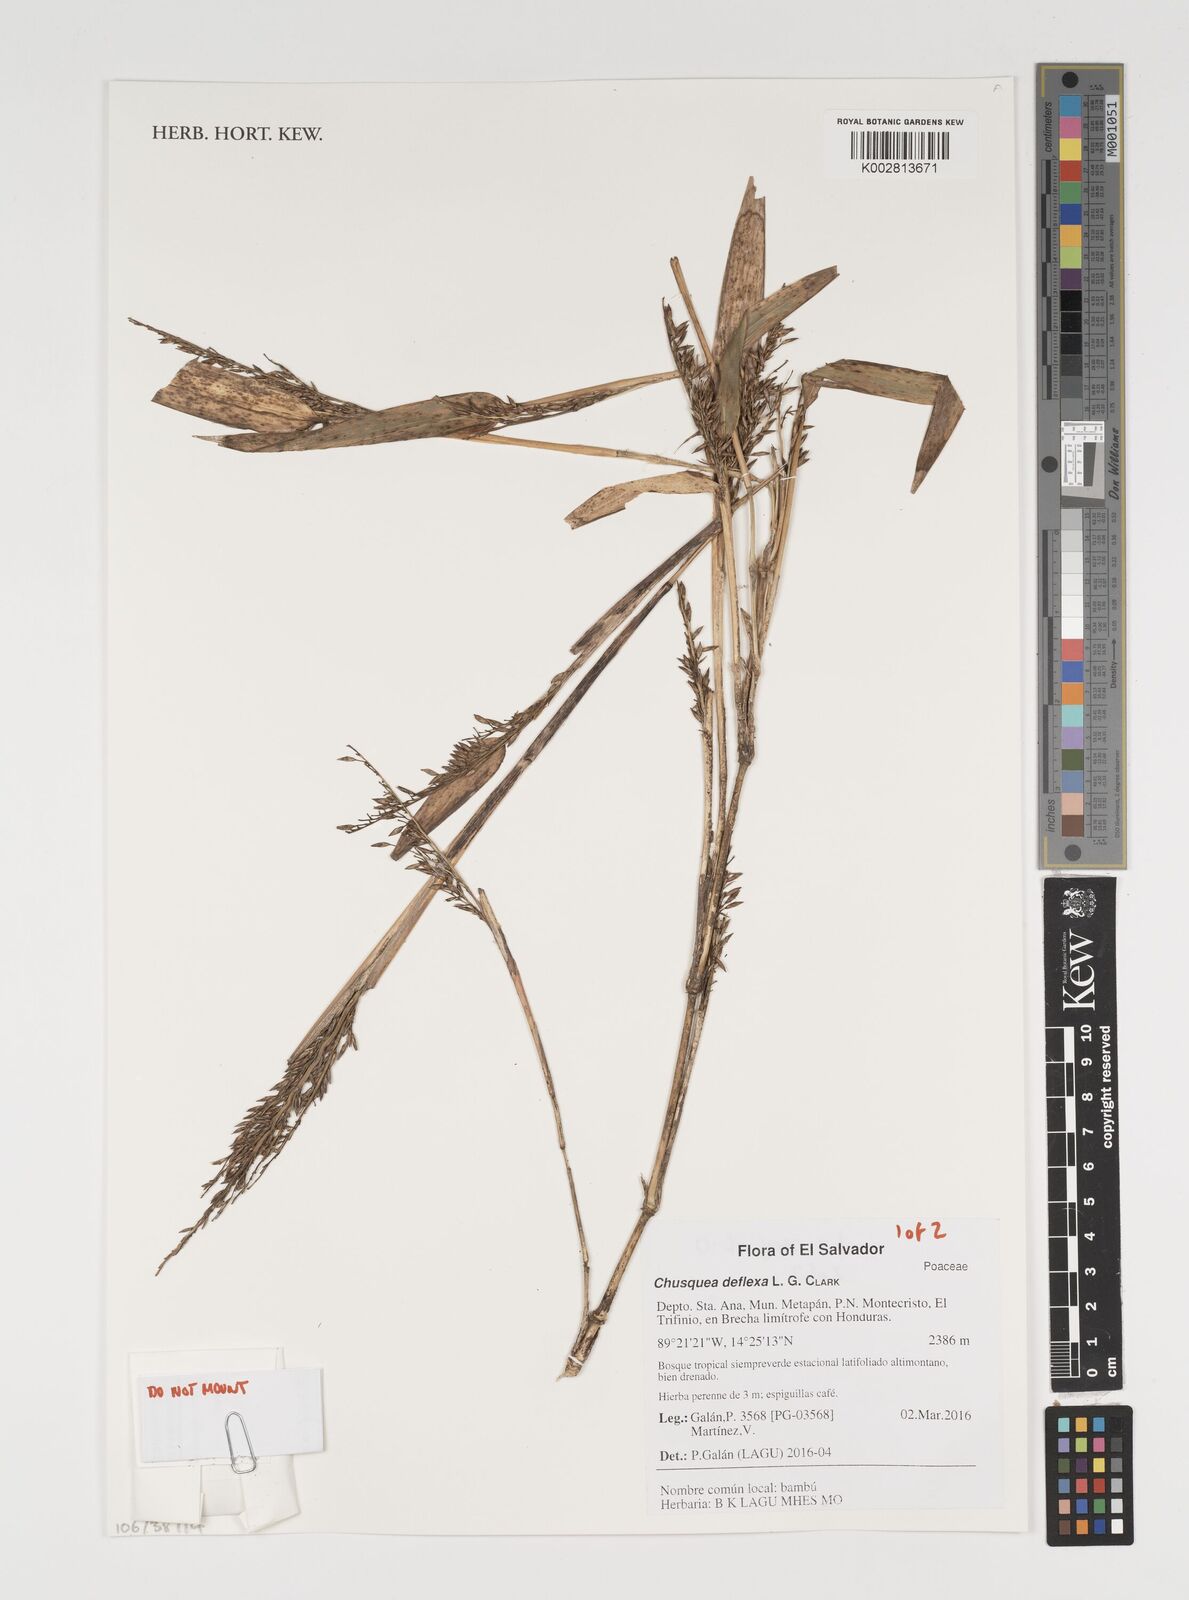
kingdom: Plantae
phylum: Tracheophyta
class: Liliopsida
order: Poales
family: Poaceae
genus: Chusquea
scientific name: Chusquea deflexa
